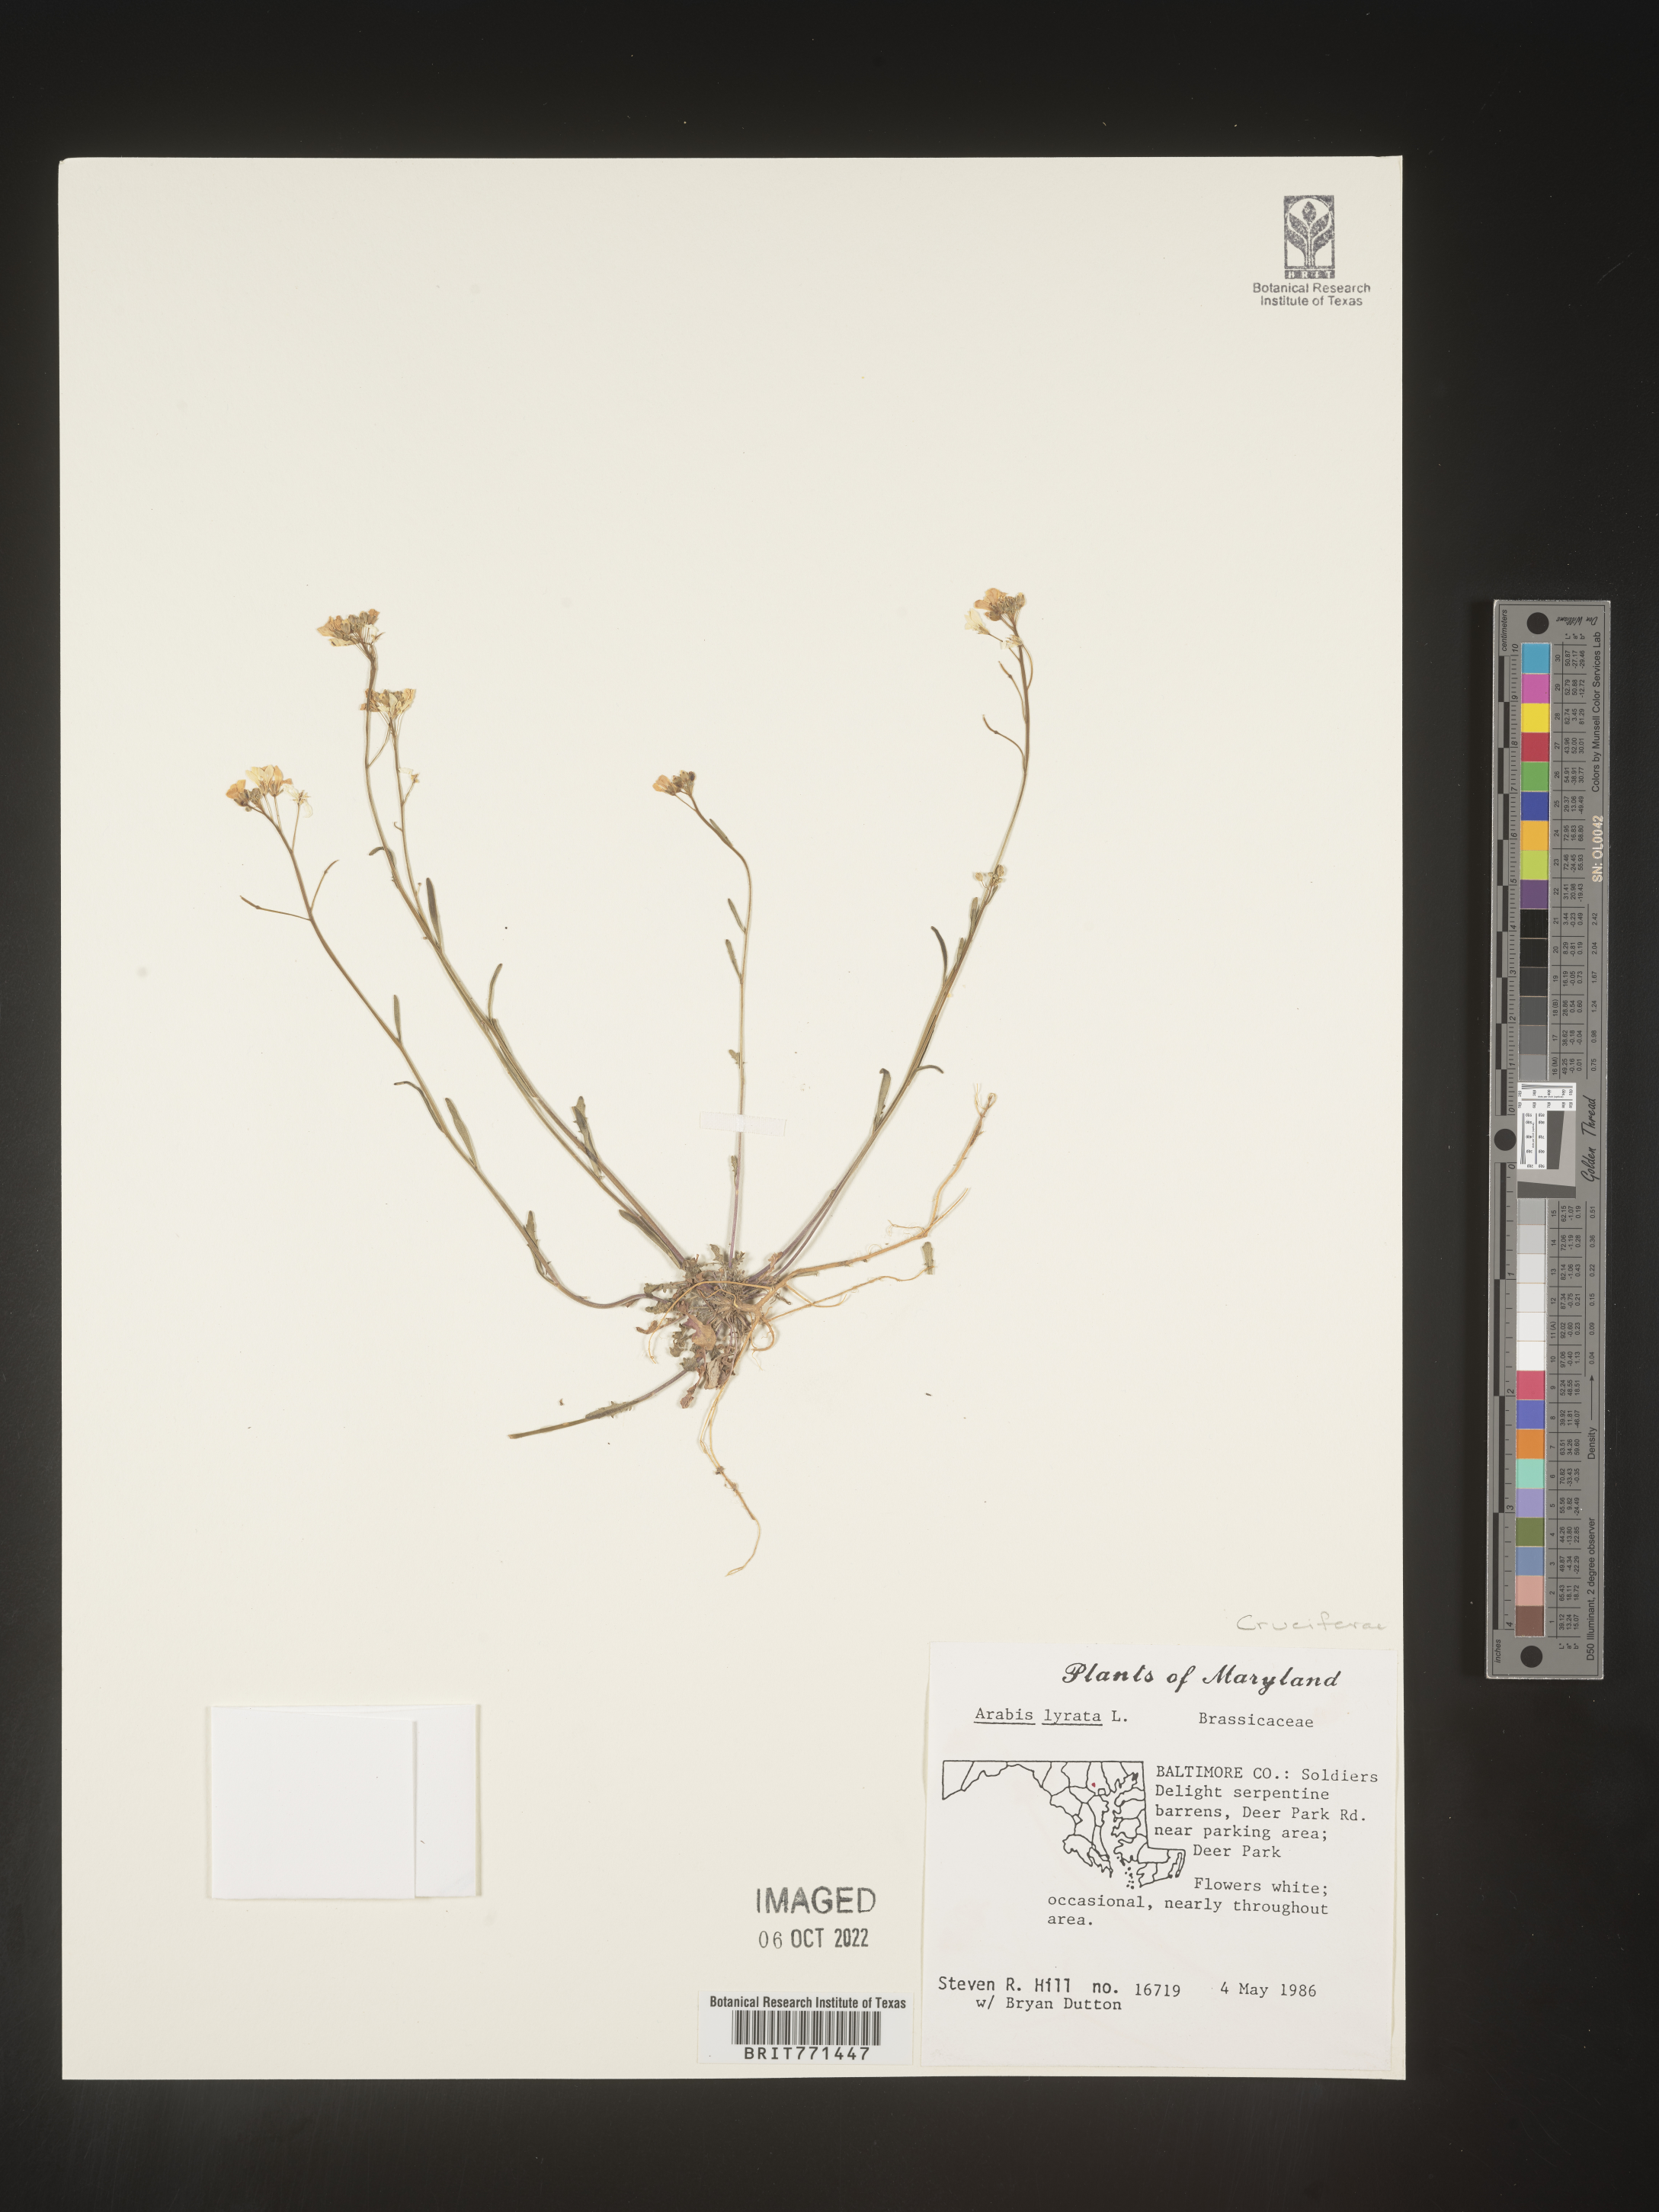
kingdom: Plantae
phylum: Tracheophyta
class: Magnoliopsida
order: Brassicales
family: Brassicaceae
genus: Arabidopsis
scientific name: Arabidopsis lyrata
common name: Lyrate rockcress
